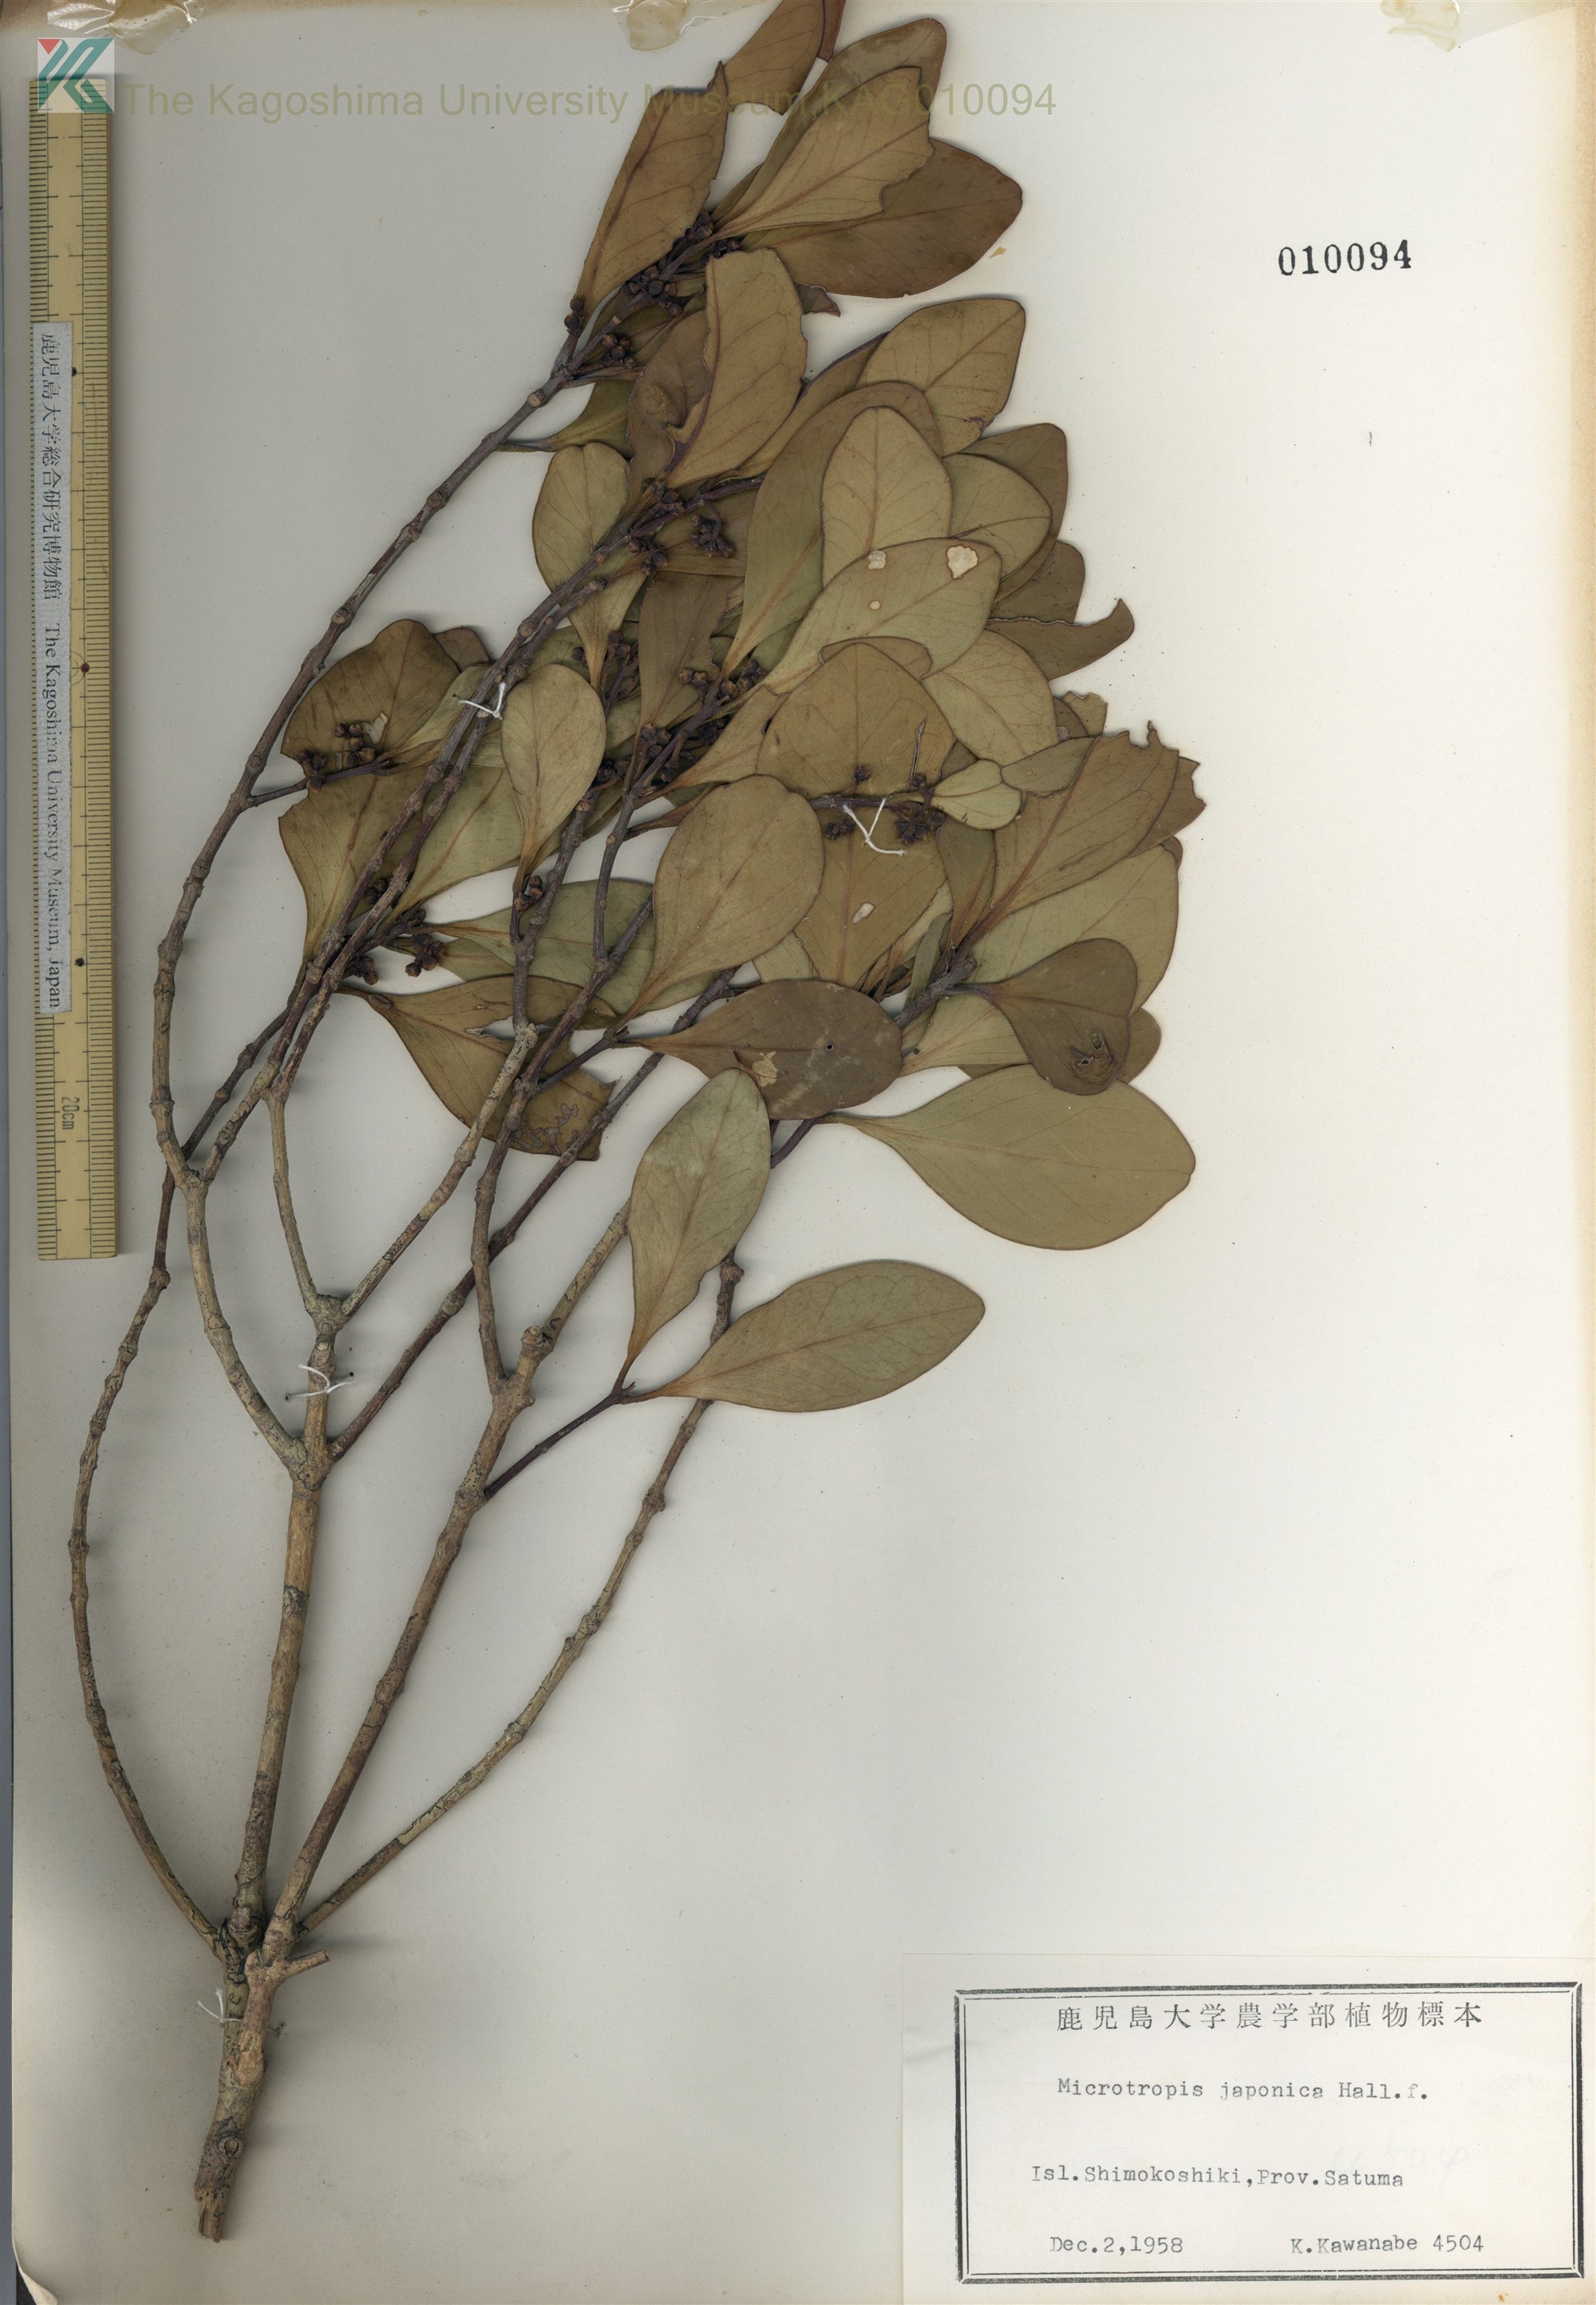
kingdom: Plantae
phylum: Tracheophyta
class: Magnoliopsida
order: Celastrales
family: Celastraceae
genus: Microtropis
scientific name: Microtropis japonica
